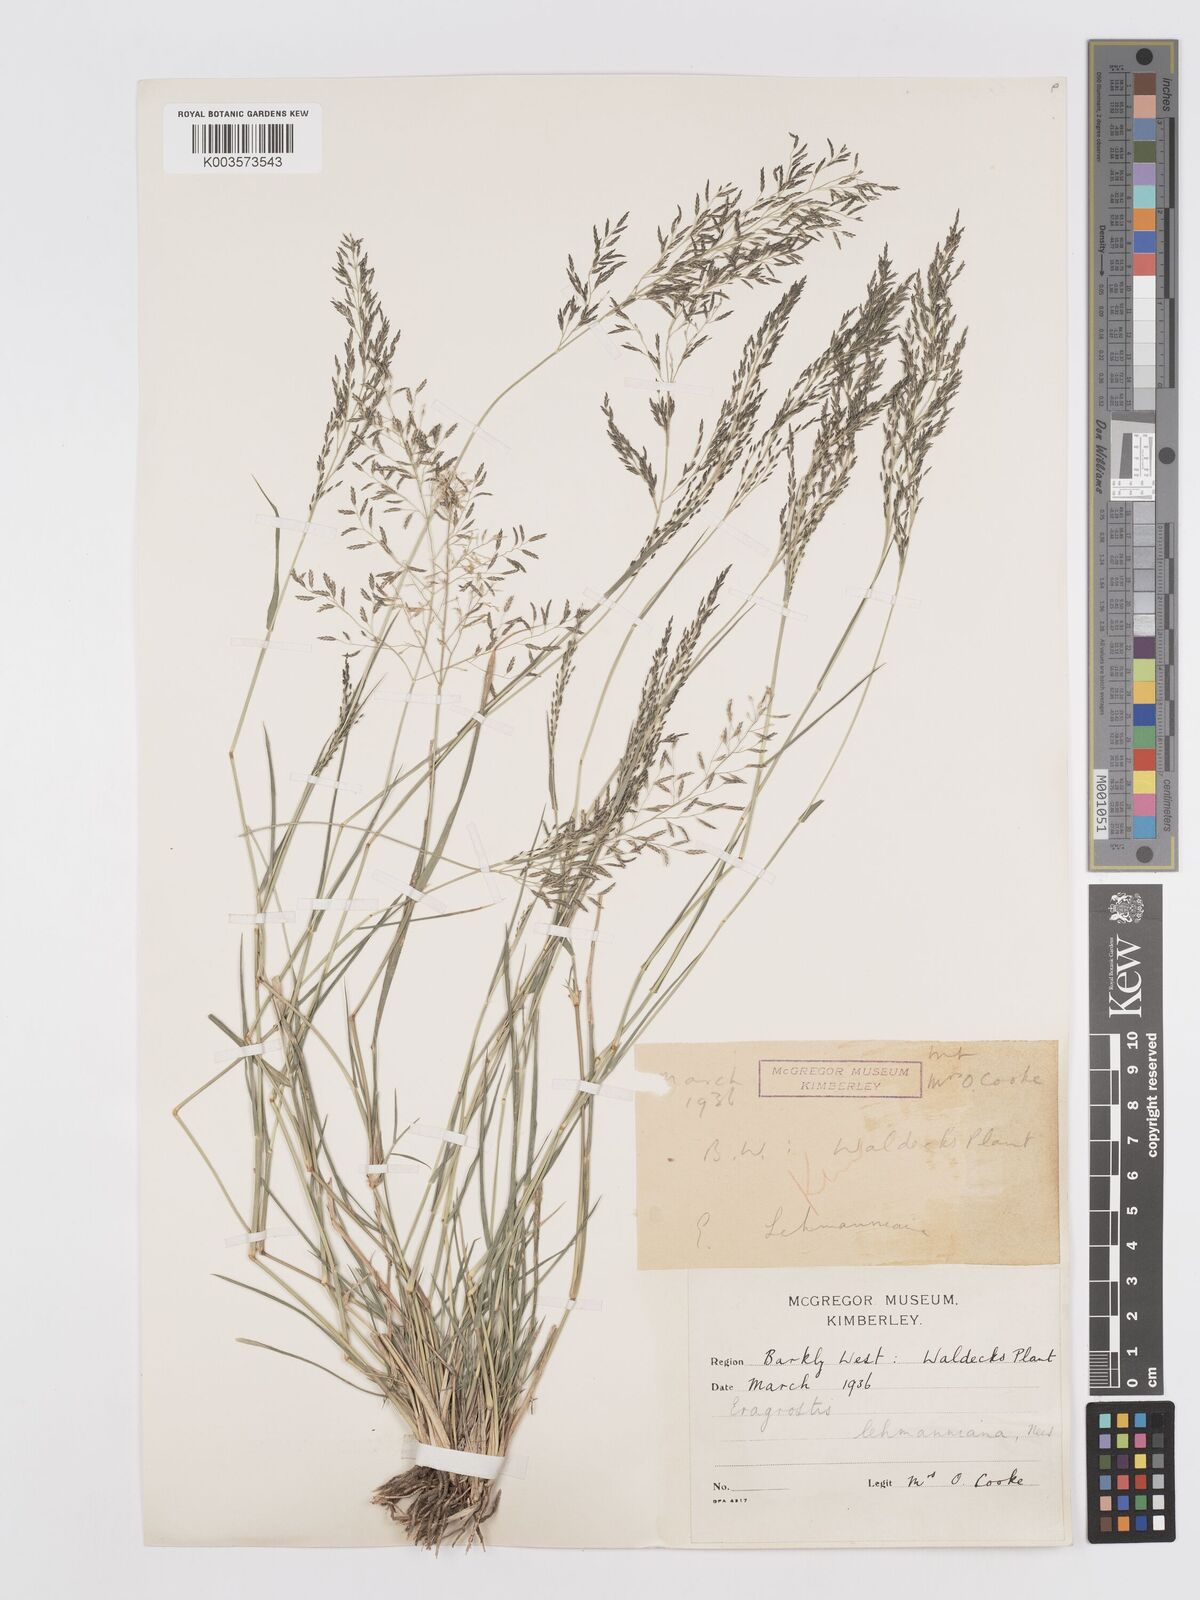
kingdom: Plantae
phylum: Tracheophyta
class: Liliopsida
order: Poales
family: Poaceae
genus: Eragrostis
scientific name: Eragrostis lehmanniana
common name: Lehmann lovegrass
